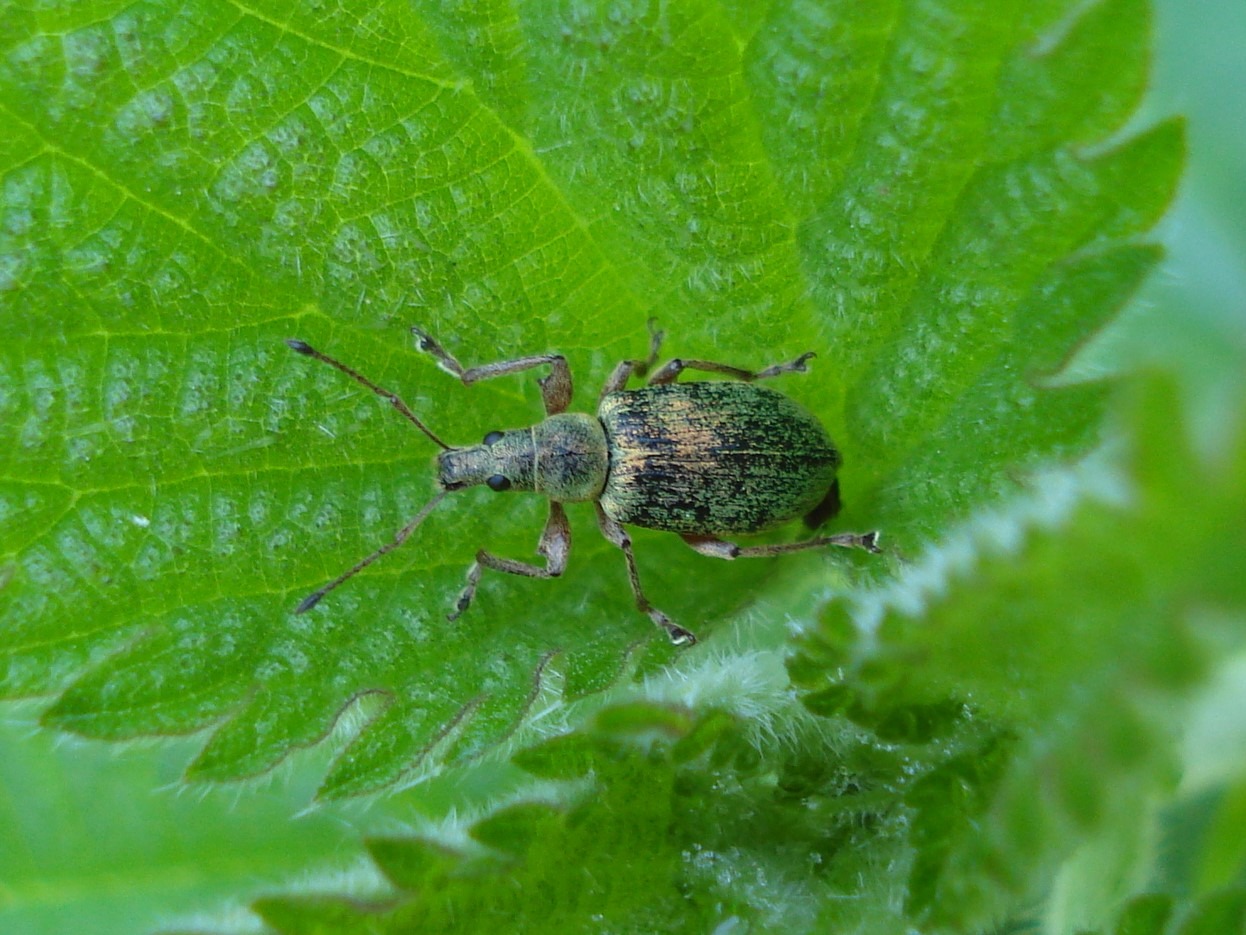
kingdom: Animalia
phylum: Arthropoda
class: Insecta
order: Coleoptera
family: Curculionidae
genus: Phyllobius
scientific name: Phyllobius pomaceus
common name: Nældesnudebille
